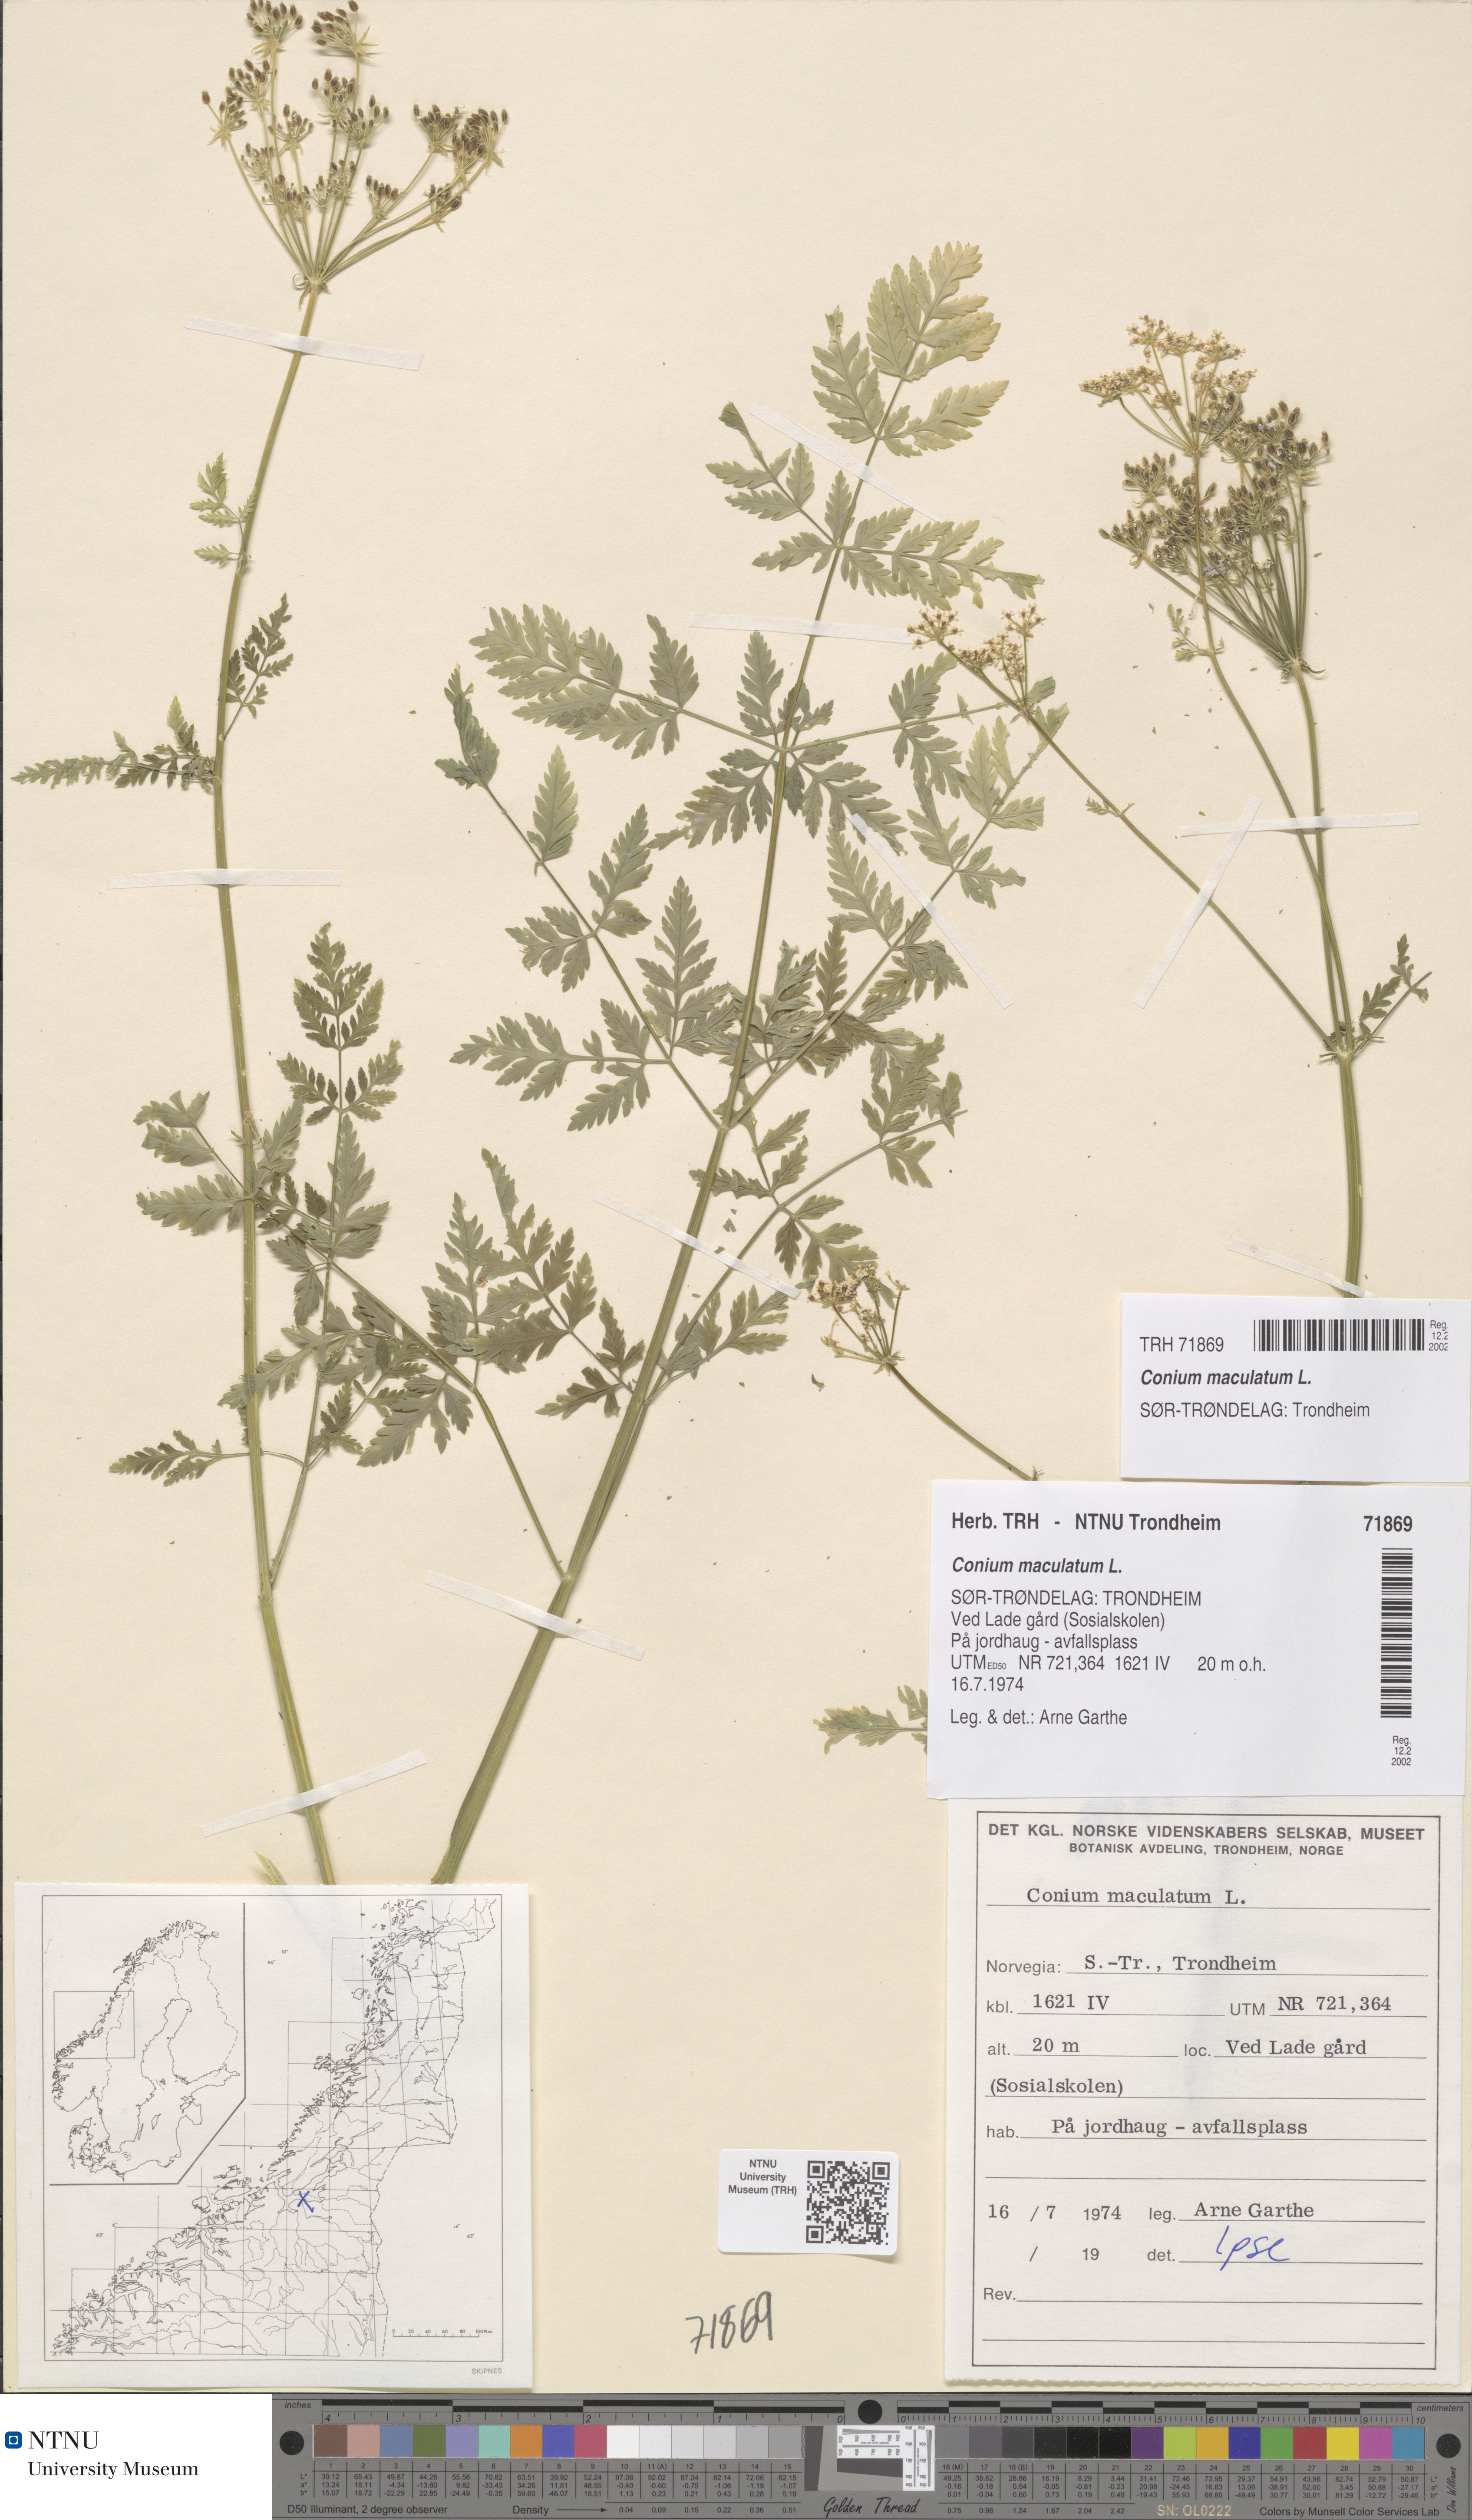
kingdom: Plantae
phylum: Tracheophyta
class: Magnoliopsida
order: Apiales
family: Apiaceae
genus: Conium
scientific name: Conium maculatum
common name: Hemlock
